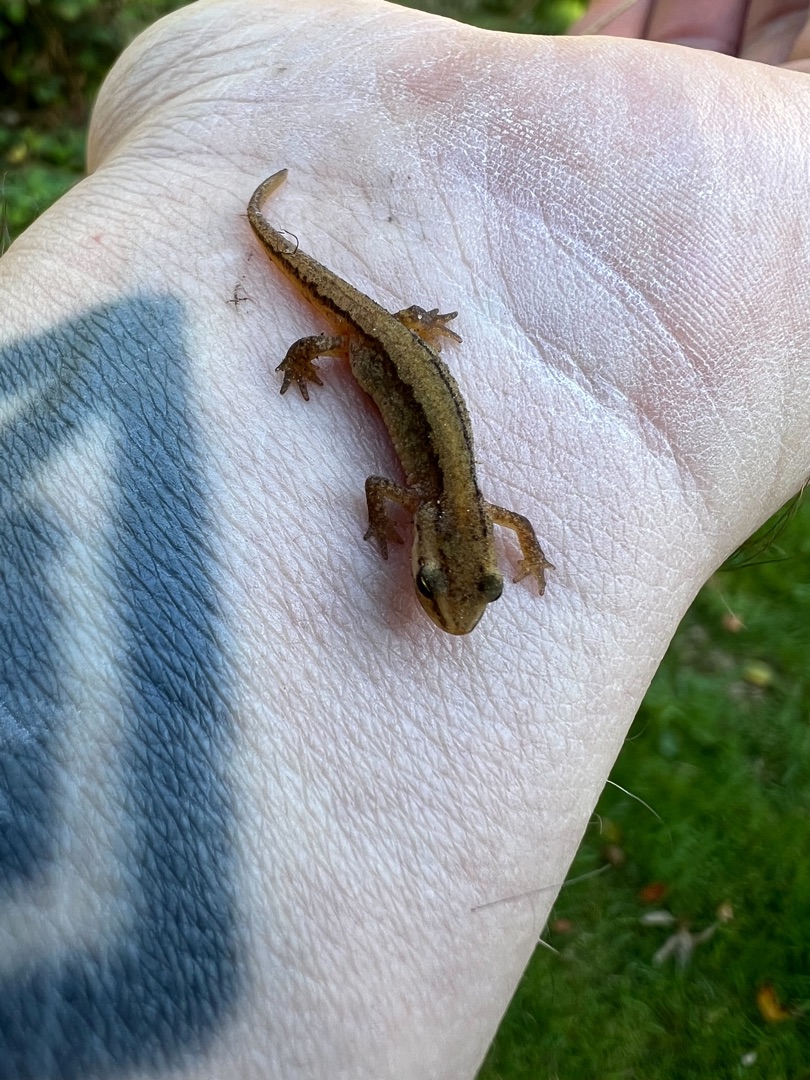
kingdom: Animalia
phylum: Chordata
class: Amphibia
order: Caudata
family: Salamandridae
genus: Lissotriton
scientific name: Lissotriton vulgaris
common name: Lille vandsalamander
